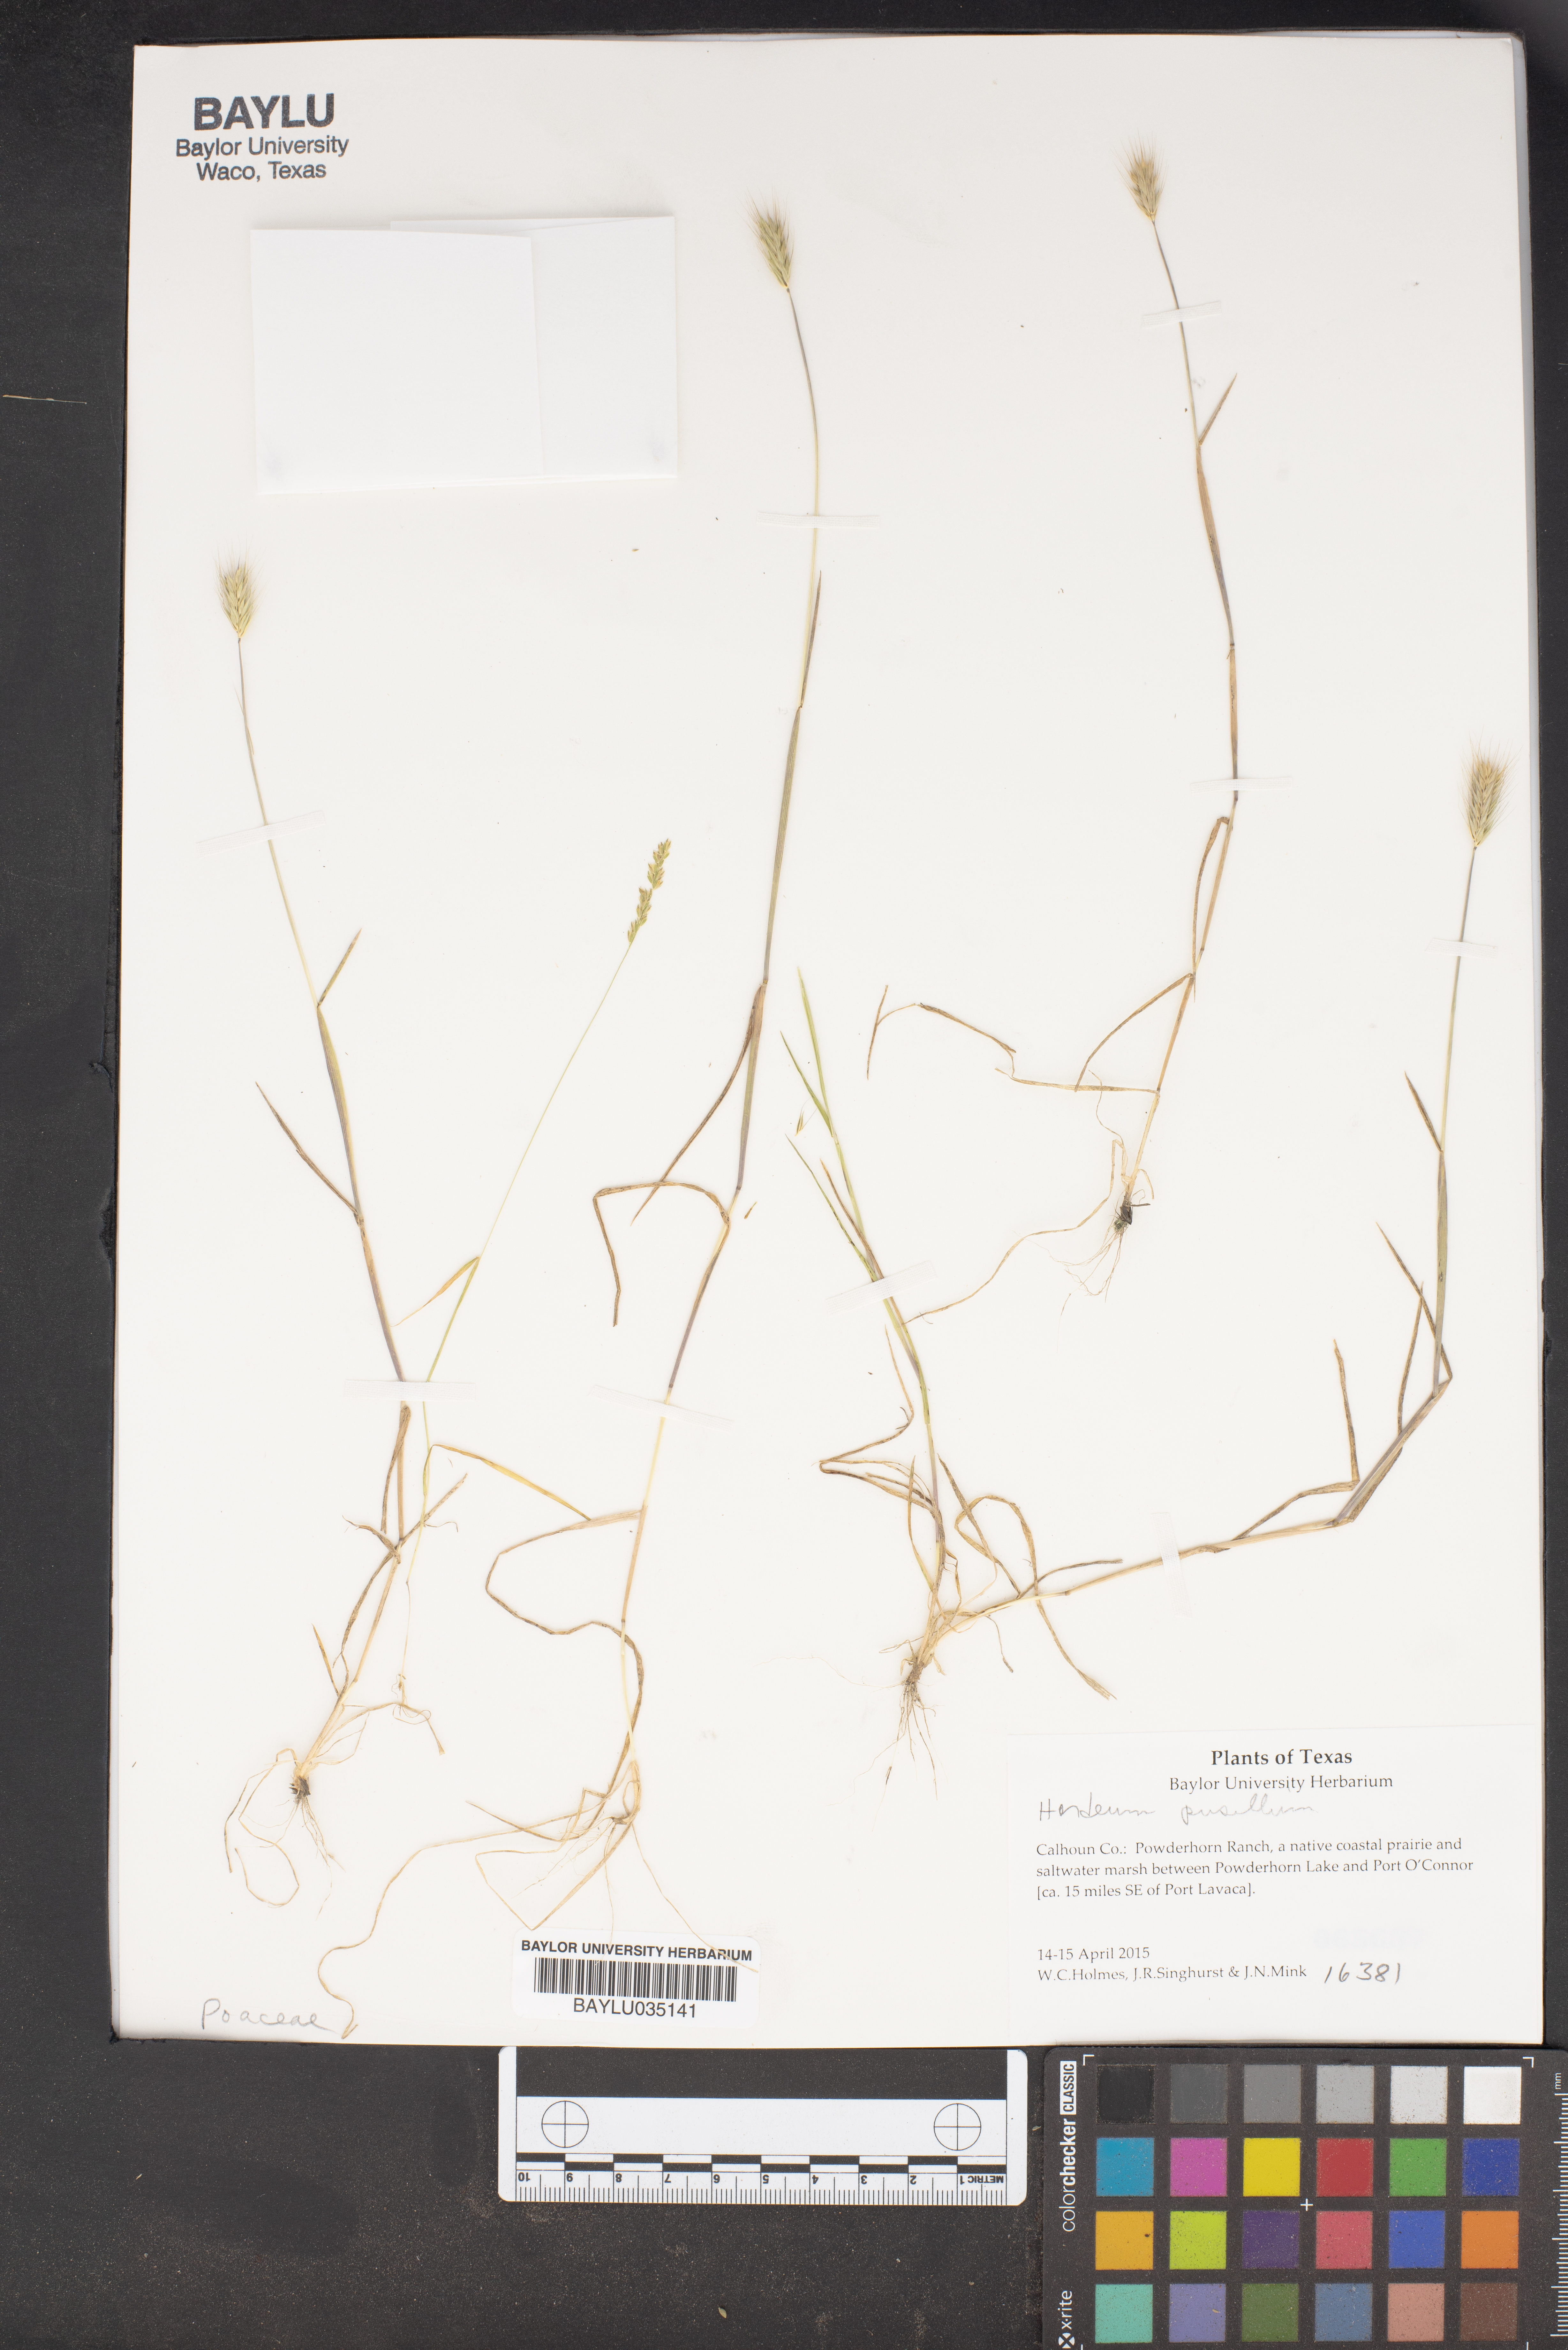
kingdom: Plantae
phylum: Tracheophyta
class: Liliopsida
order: Poales
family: Poaceae
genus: Hordeum
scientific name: Hordeum pusillum
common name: Little barley
